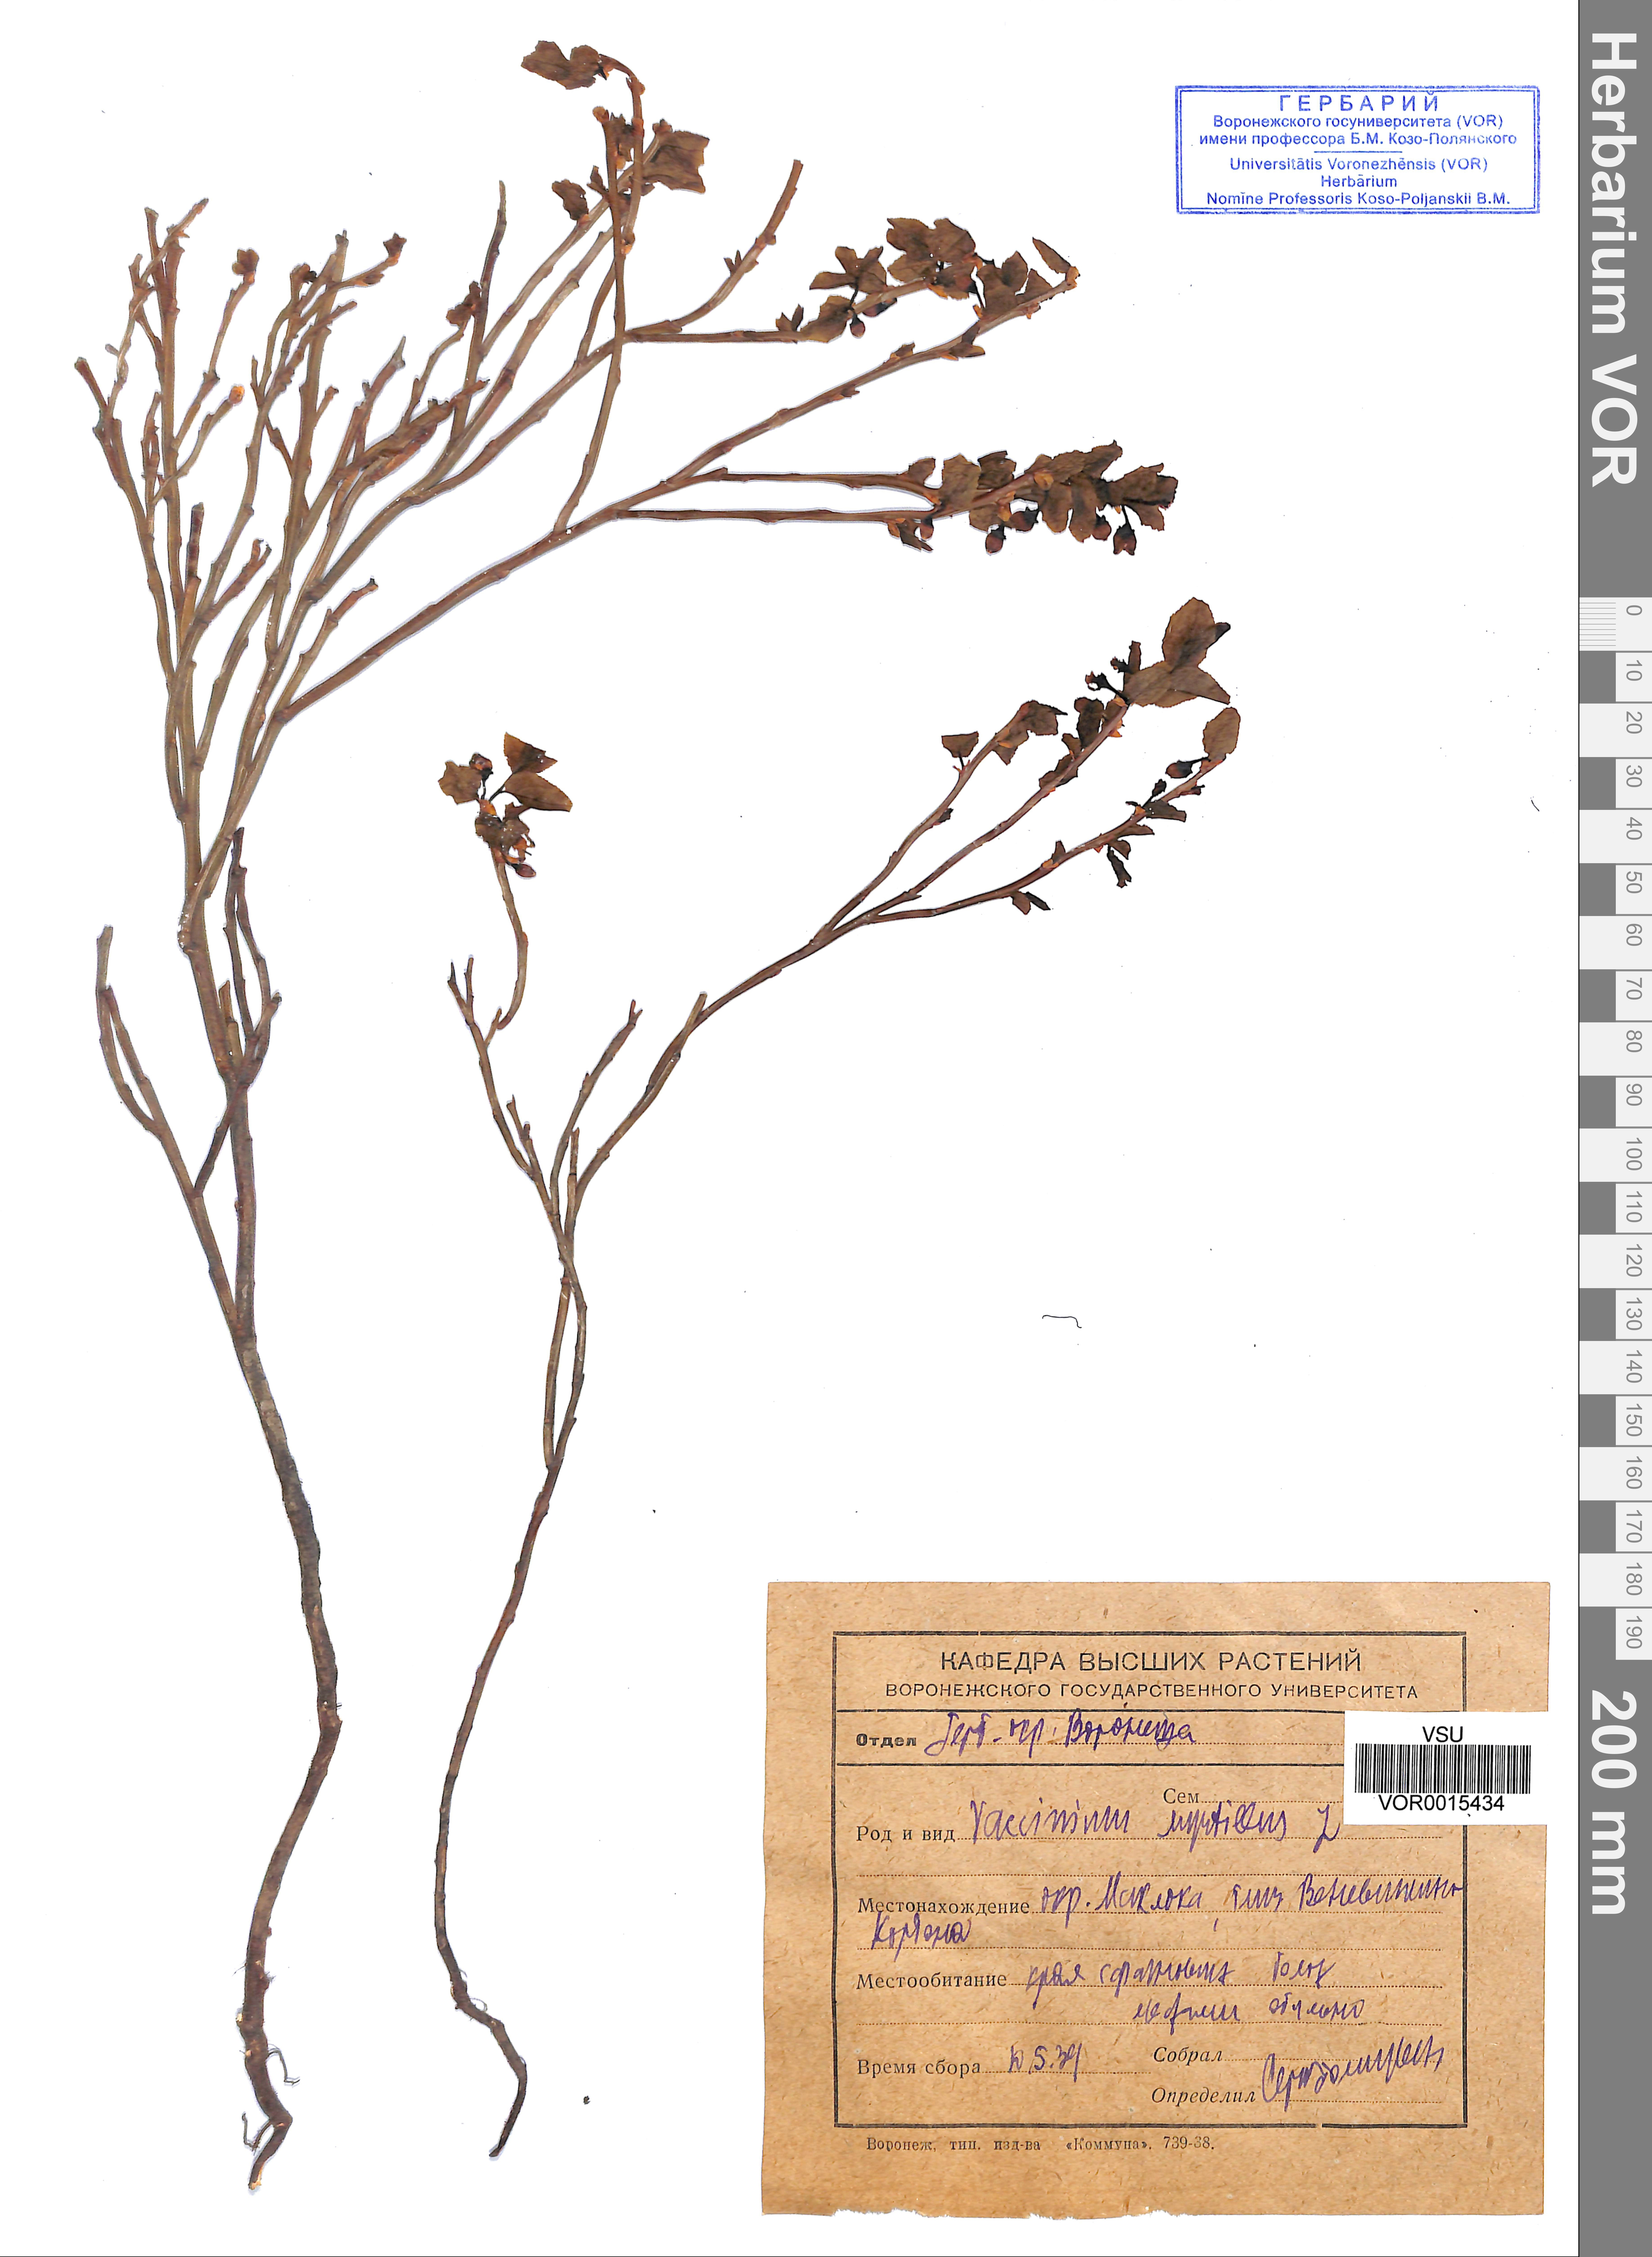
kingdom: Plantae
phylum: Tracheophyta
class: Magnoliopsida
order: Ericales
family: Ericaceae
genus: Vaccinium
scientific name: Vaccinium myrtillus
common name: Bilberry
